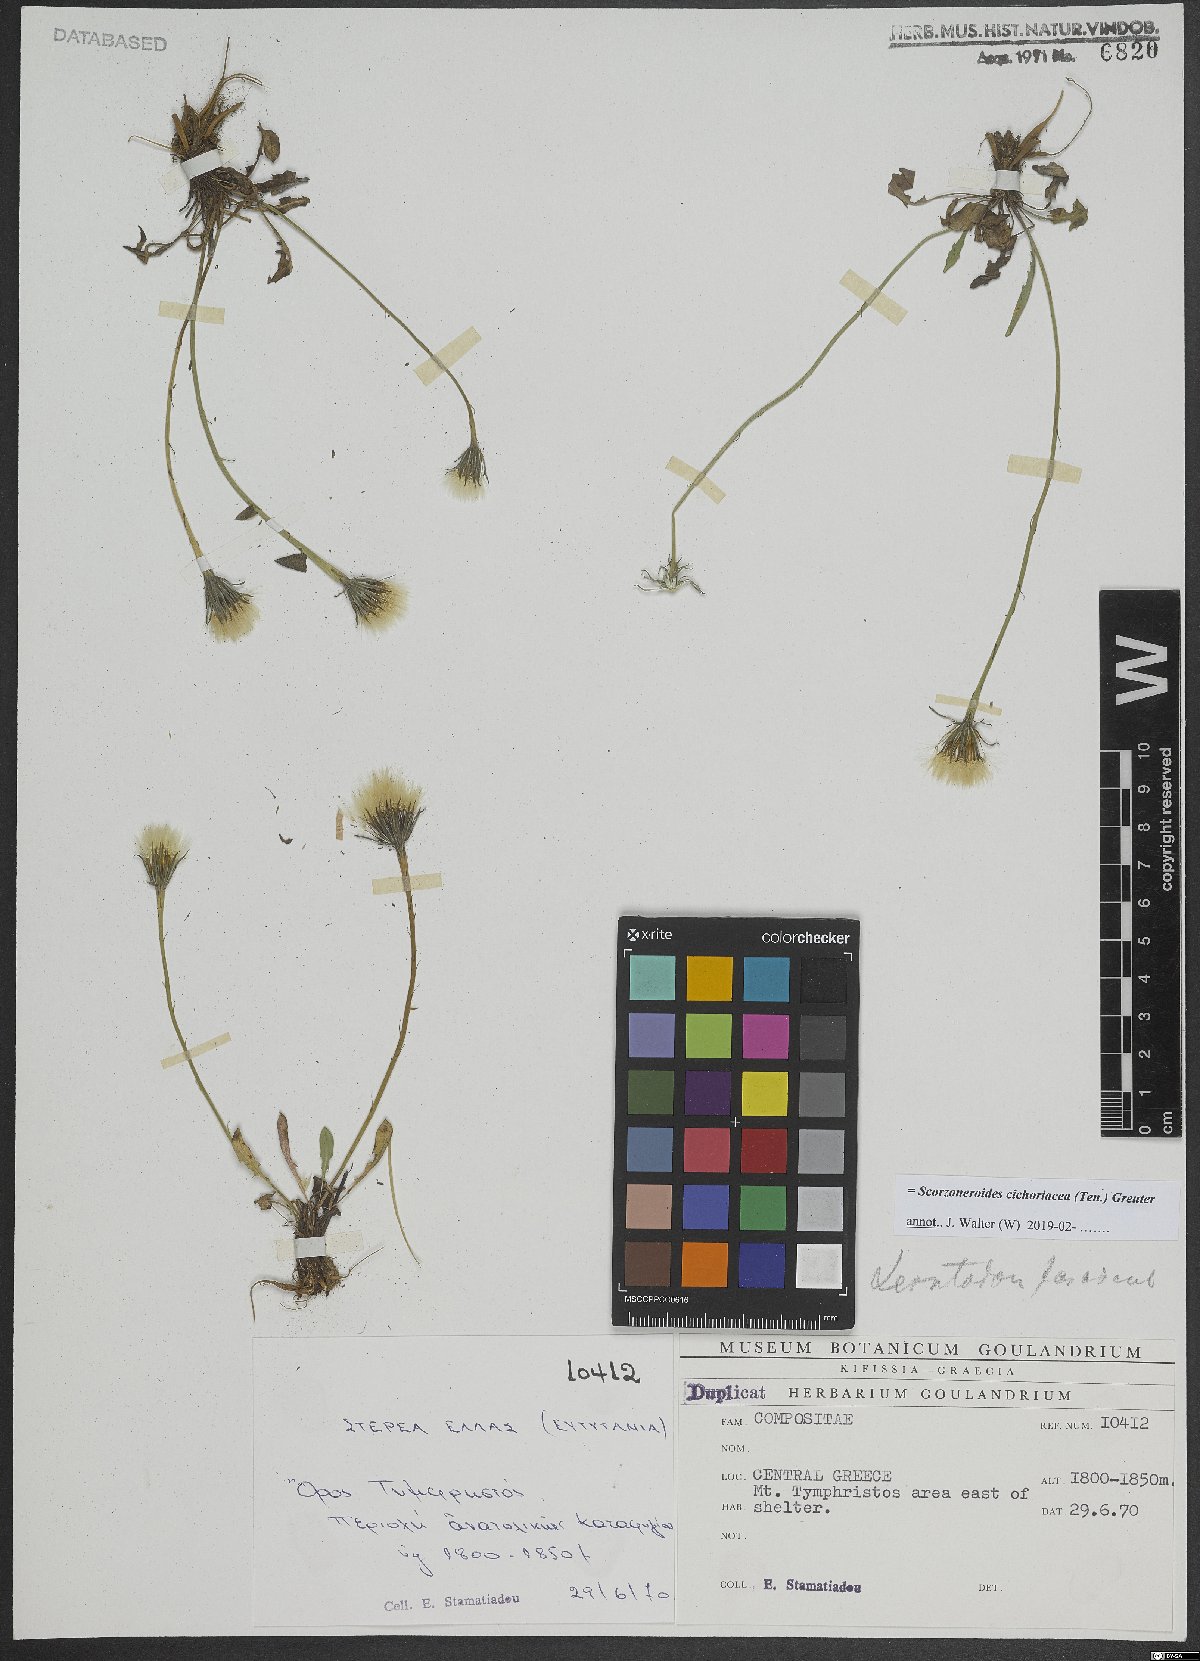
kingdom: Plantae
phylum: Tracheophyta
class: Magnoliopsida
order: Asterales
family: Asteraceae
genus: Scorzoneroides
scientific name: Scorzoneroides cichoriacea
